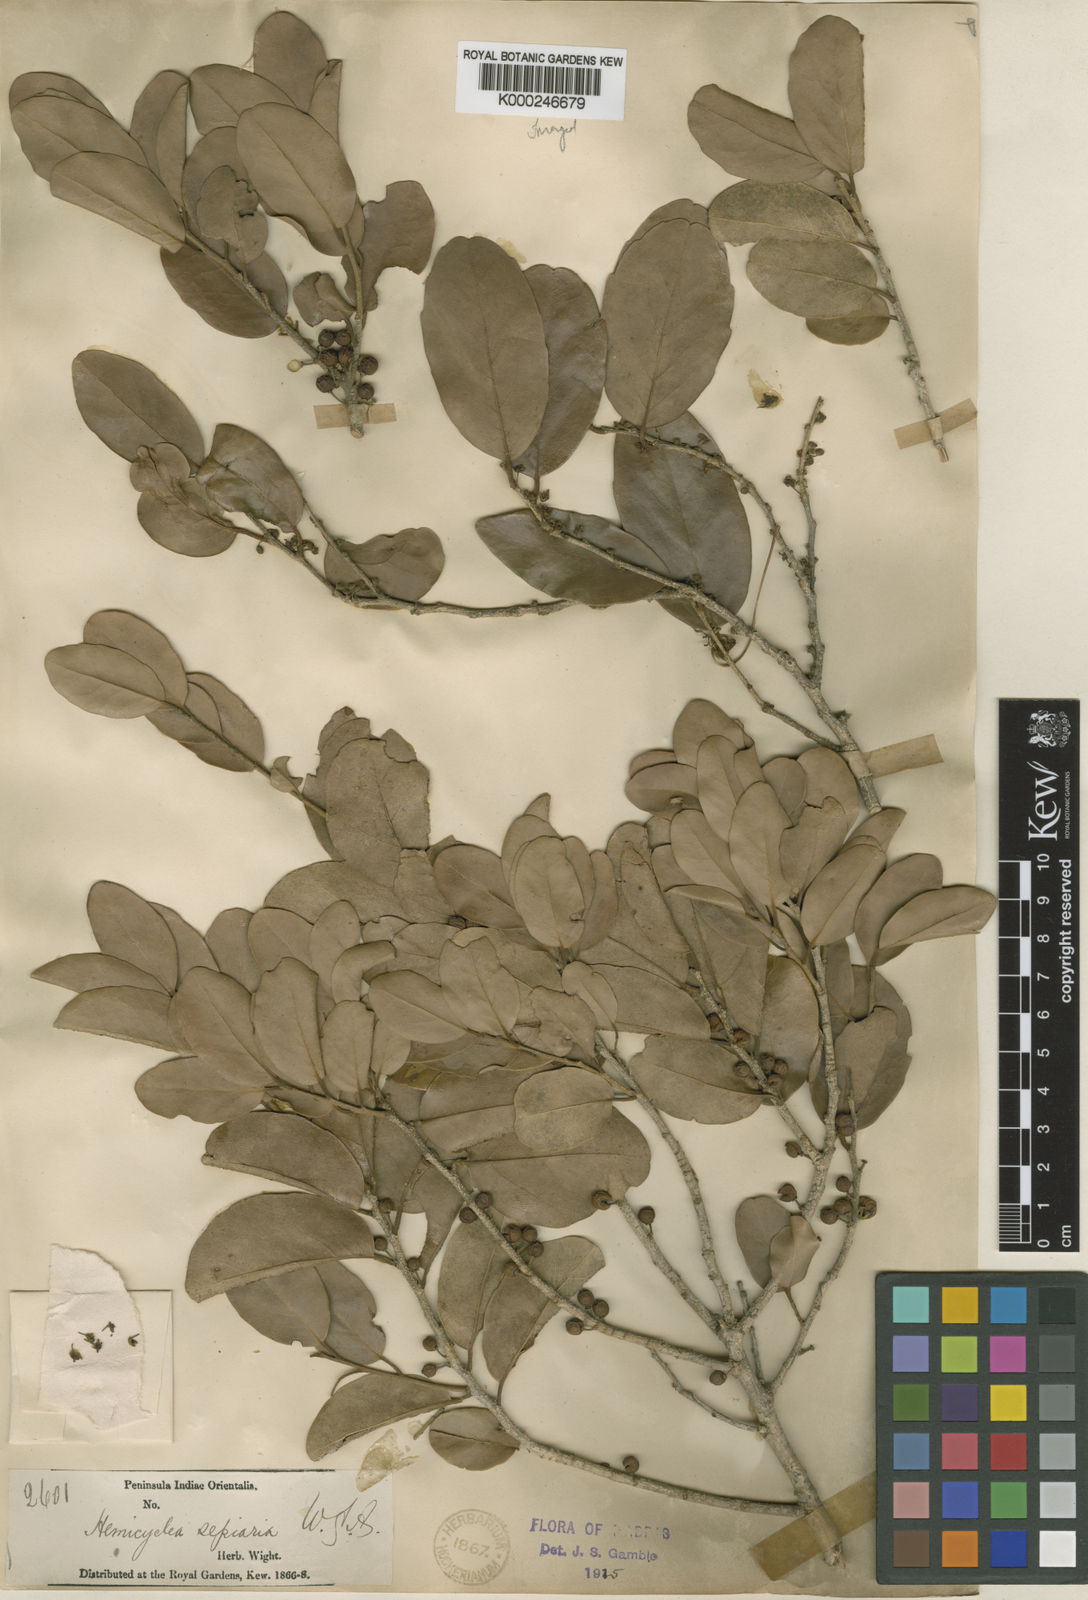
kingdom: Plantae
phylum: Tracheophyta
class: Magnoliopsida
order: Malpighiales
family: Putranjivaceae
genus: Drypetes
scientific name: Drypetes sepiaria
